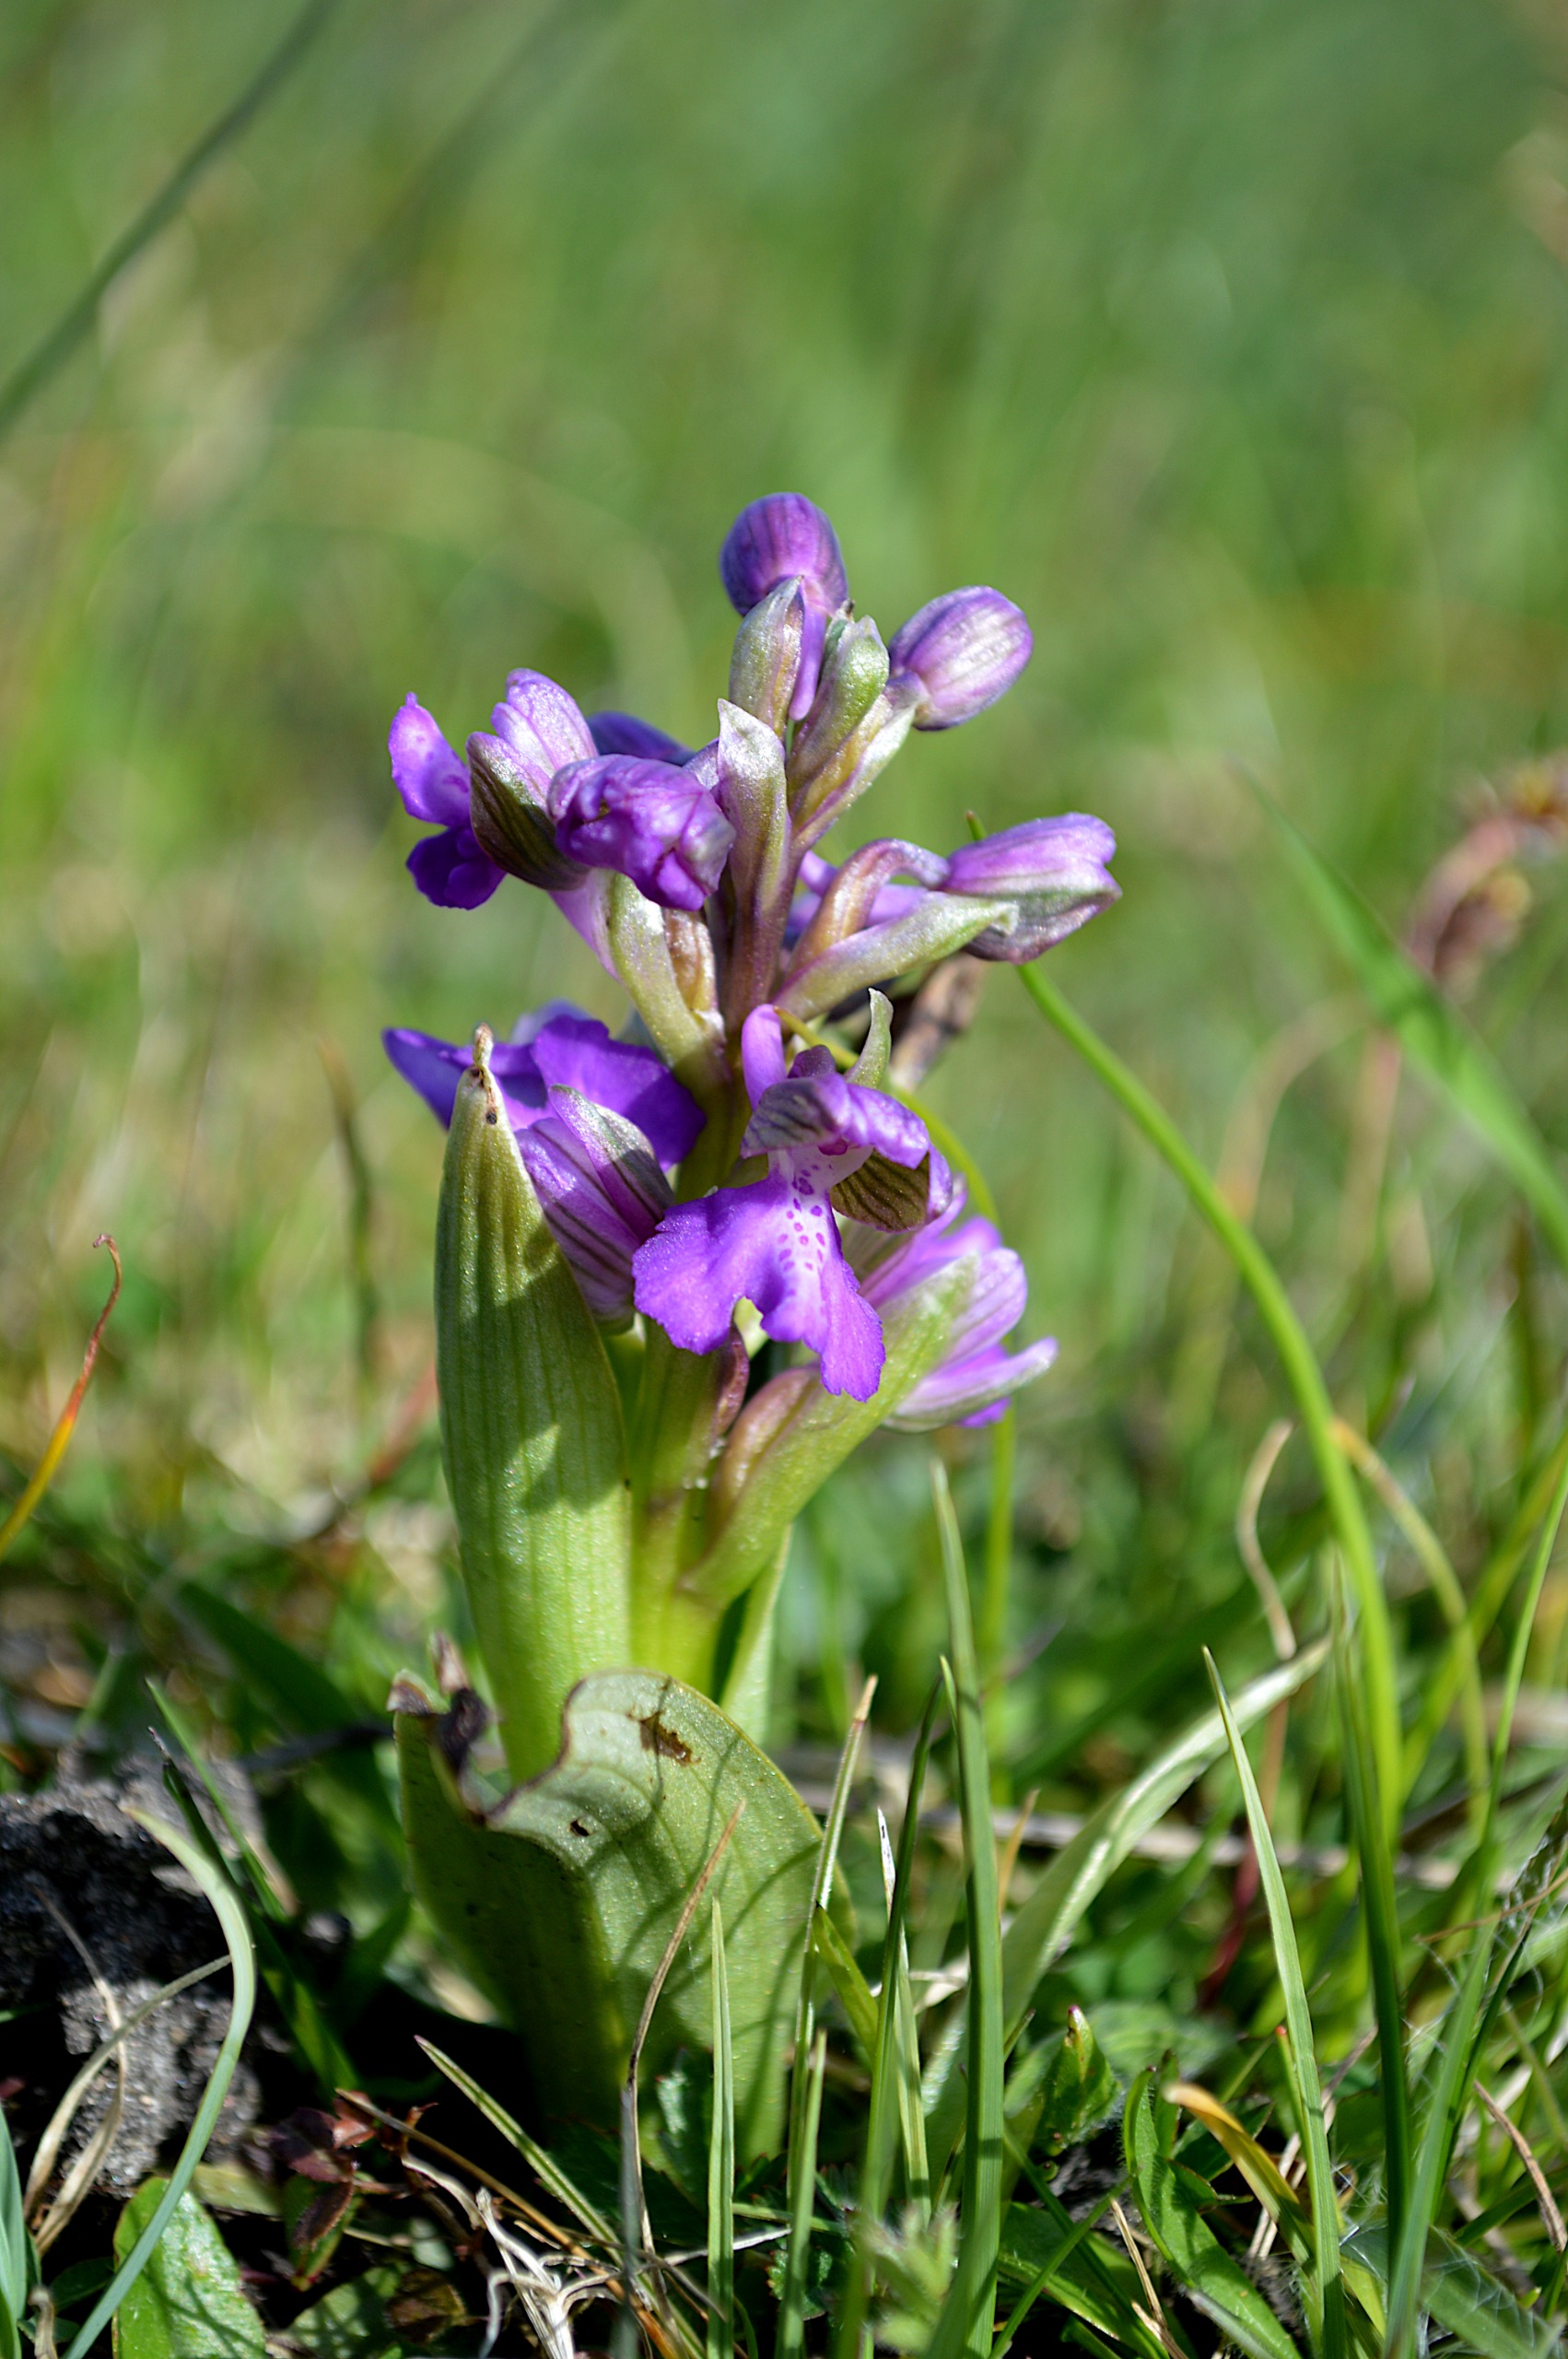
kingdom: Plantae
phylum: Tracheophyta
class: Liliopsida
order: Asparagales
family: Orchidaceae
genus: Anacamptis
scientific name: Anacamptis morio
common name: Salepgøgeurt
